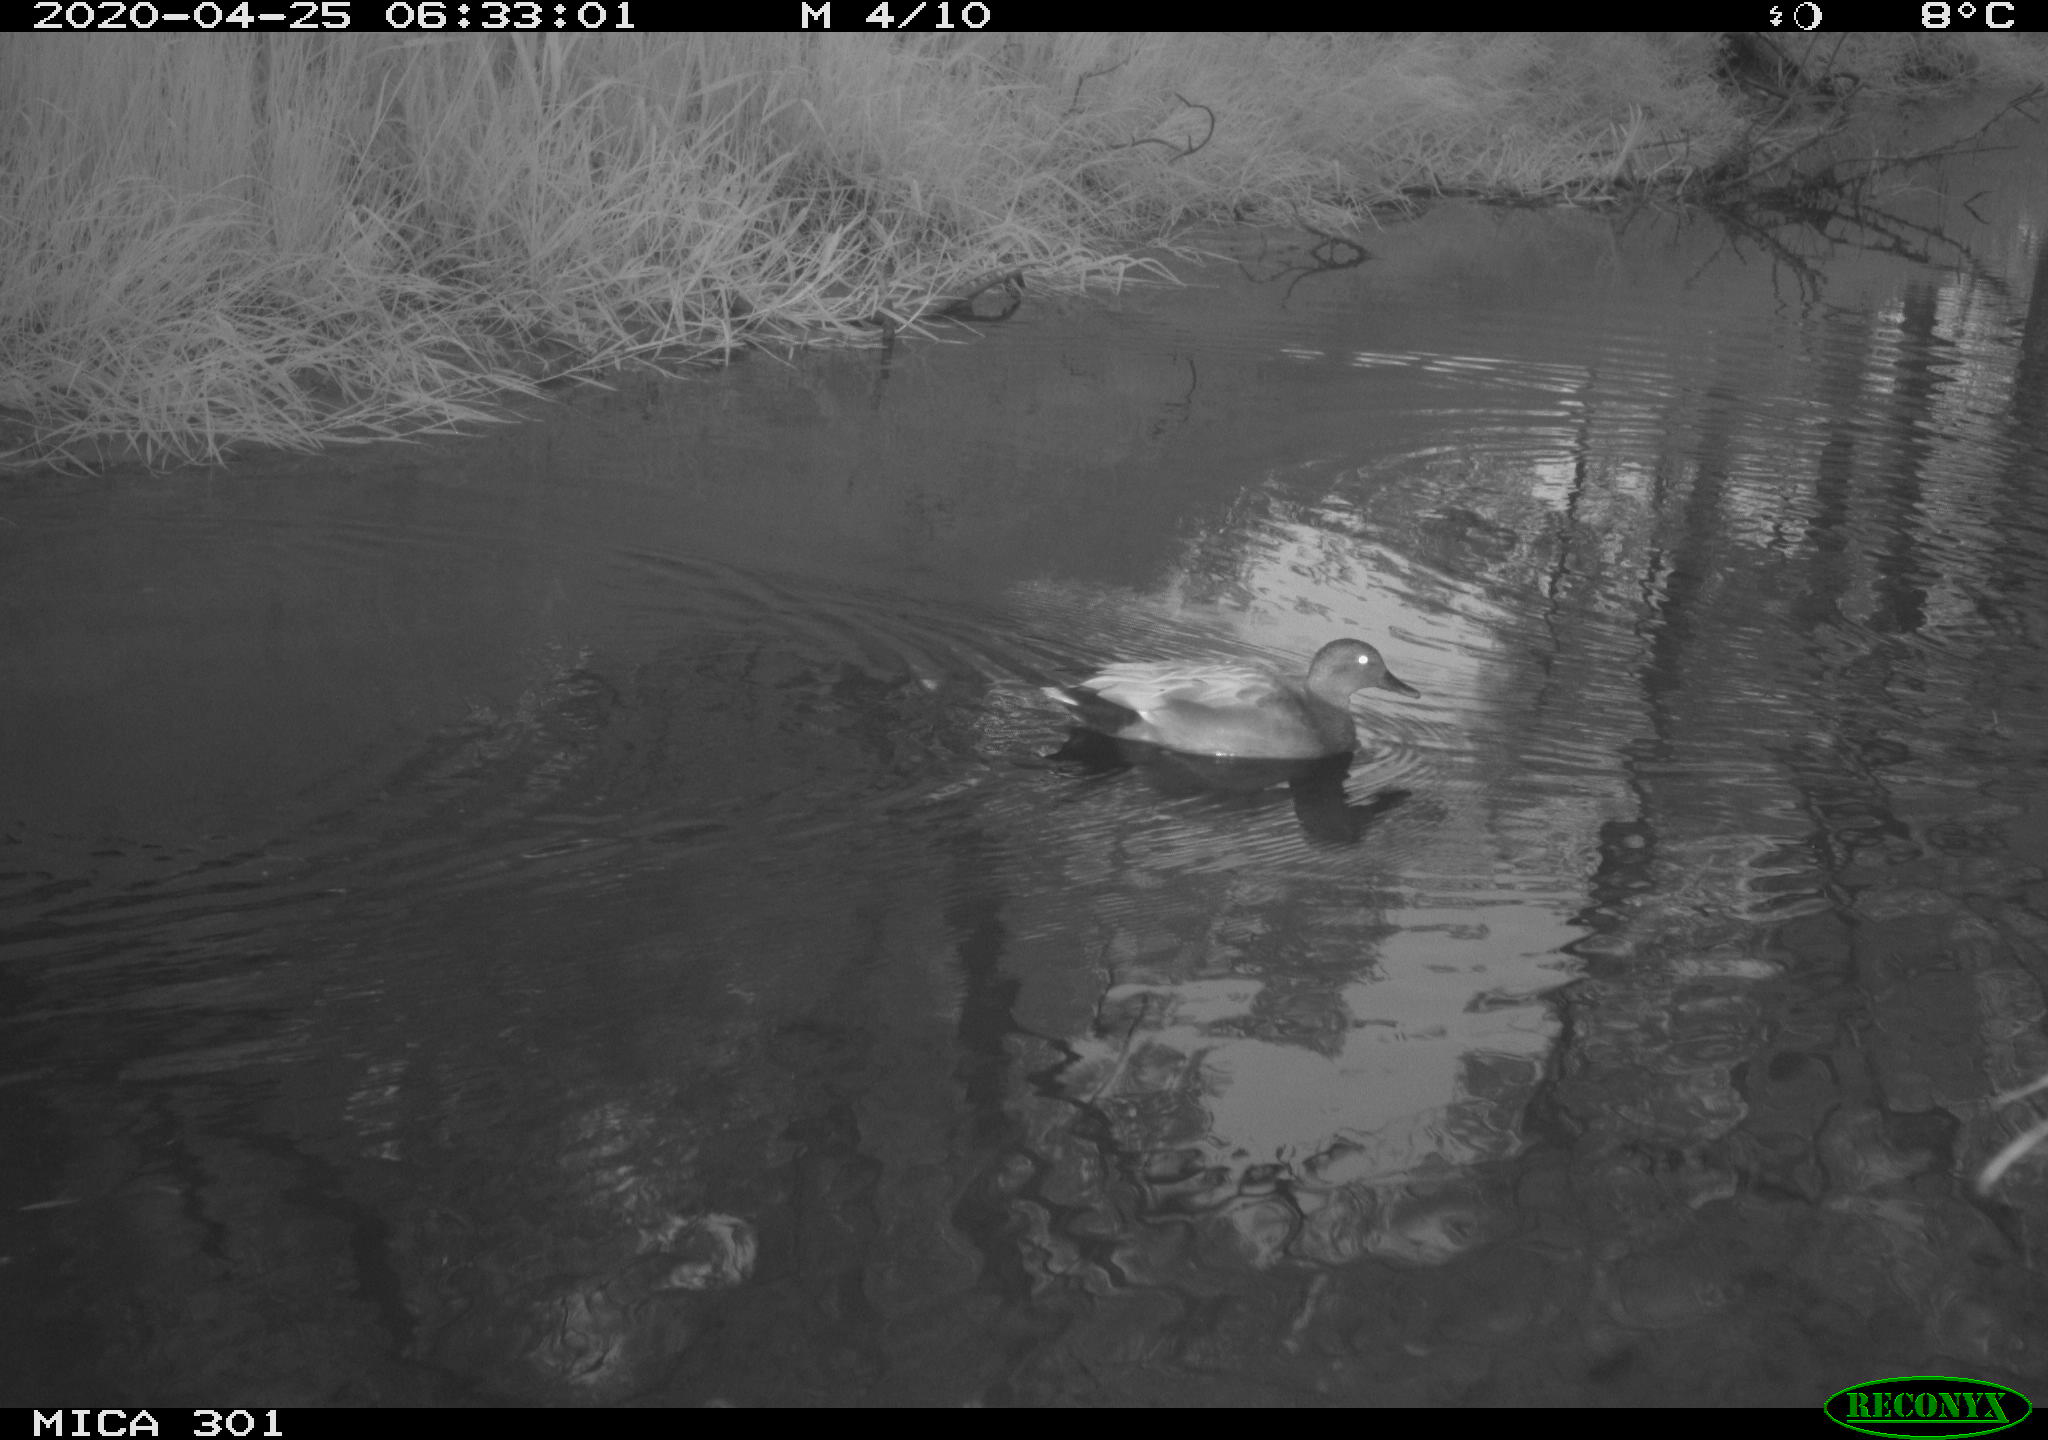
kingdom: Animalia
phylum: Chordata
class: Aves
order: Anseriformes
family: Anatidae
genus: Mareca
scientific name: Mareca strepera
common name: Gadwall
